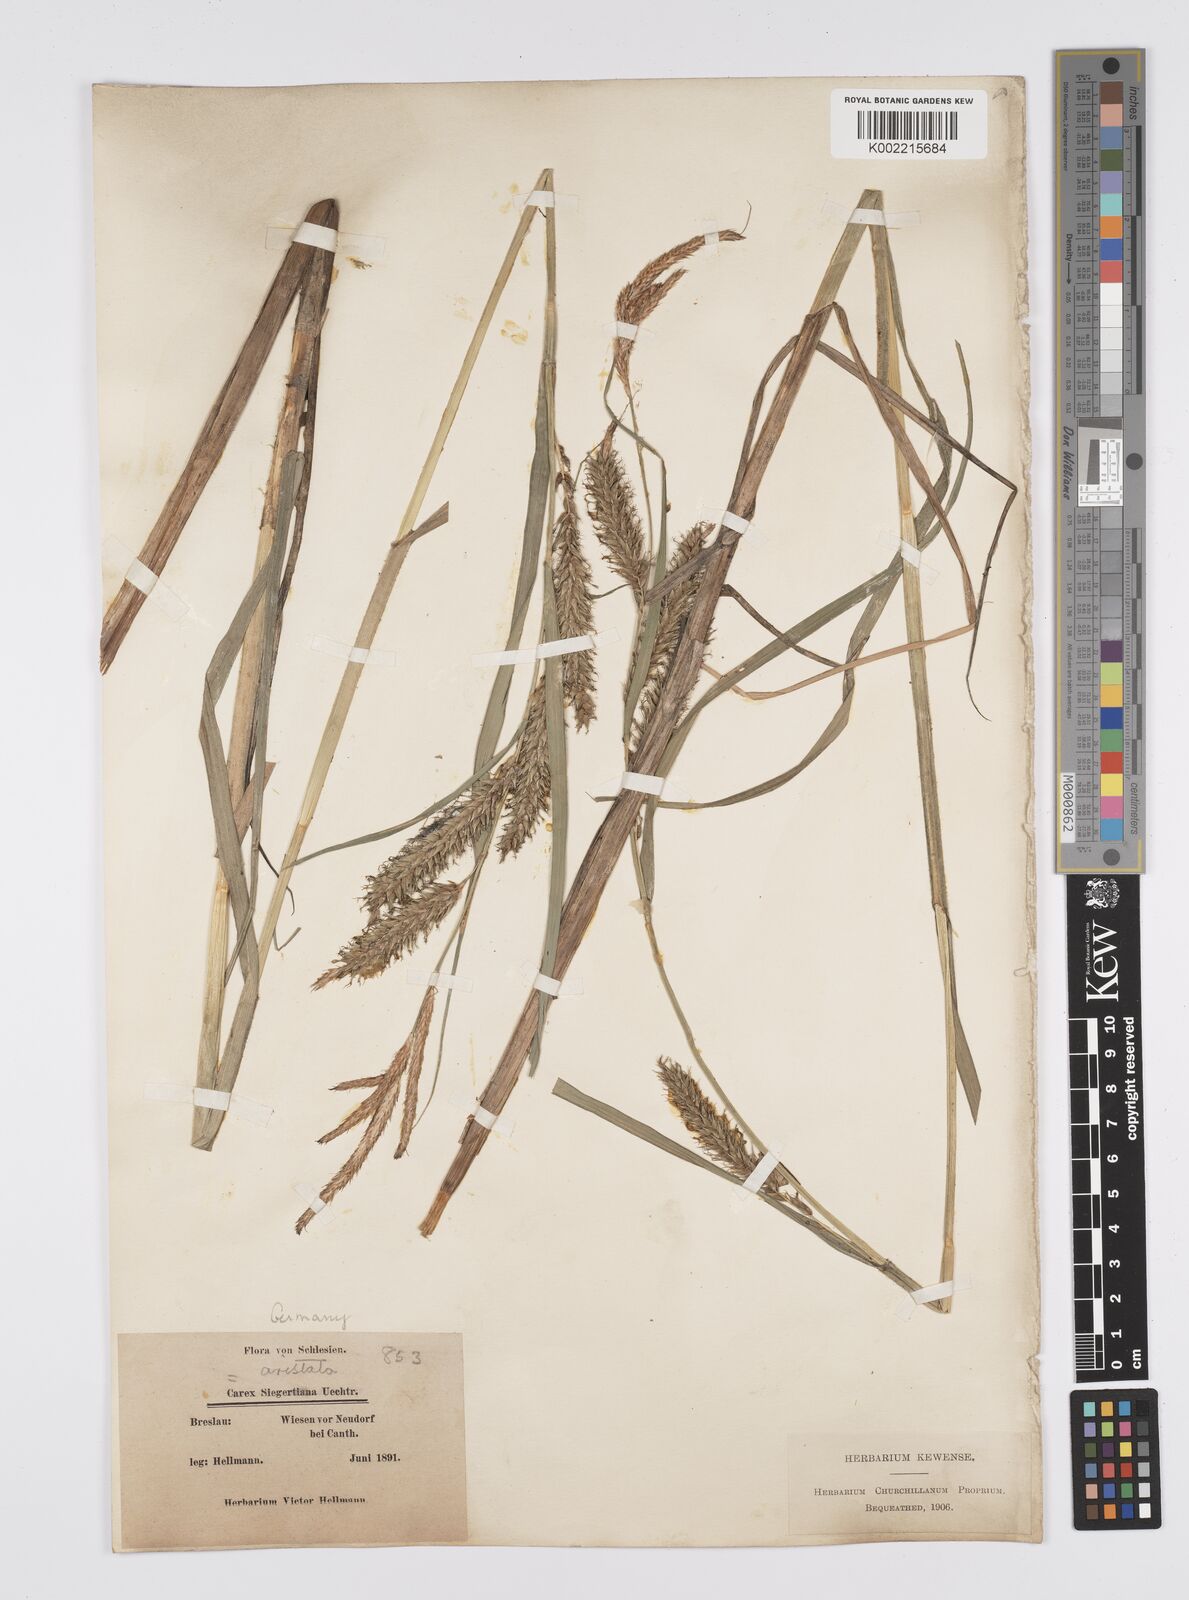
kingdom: Plantae
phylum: Tracheophyta
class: Liliopsida
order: Poales
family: Cyperaceae
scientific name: Cyperaceae
